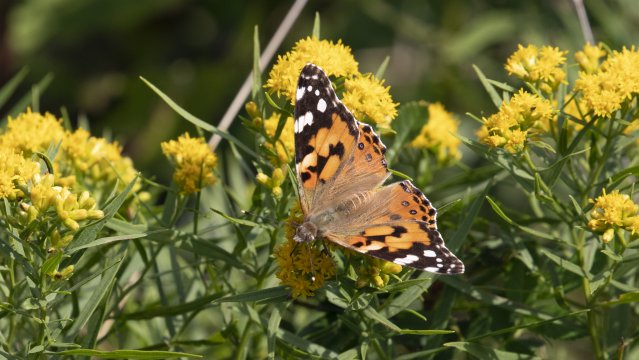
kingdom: Animalia
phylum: Arthropoda
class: Insecta
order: Lepidoptera
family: Nymphalidae
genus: Vanessa
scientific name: Vanessa cardui
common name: Painted Lady
